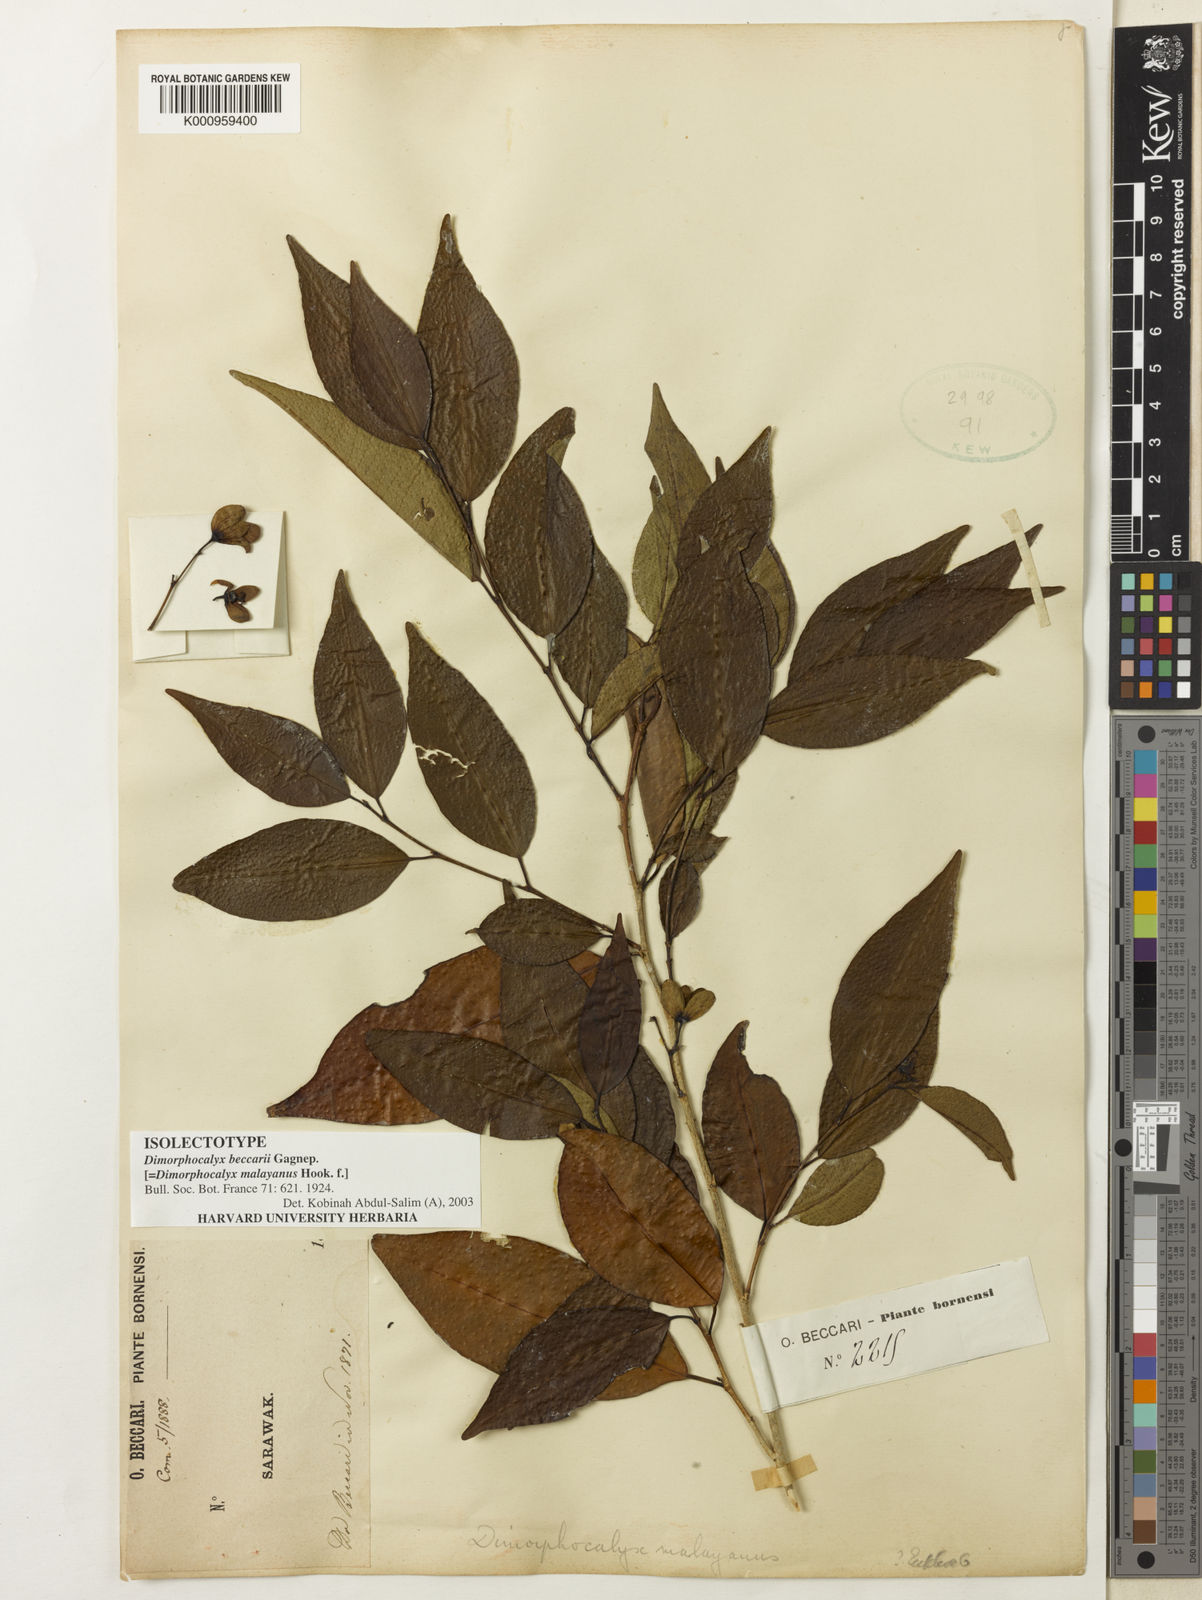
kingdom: Plantae
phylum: Tracheophyta
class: Magnoliopsida
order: Malpighiales
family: Euphorbiaceae
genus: Tritaxis
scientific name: Tritaxis malayana
